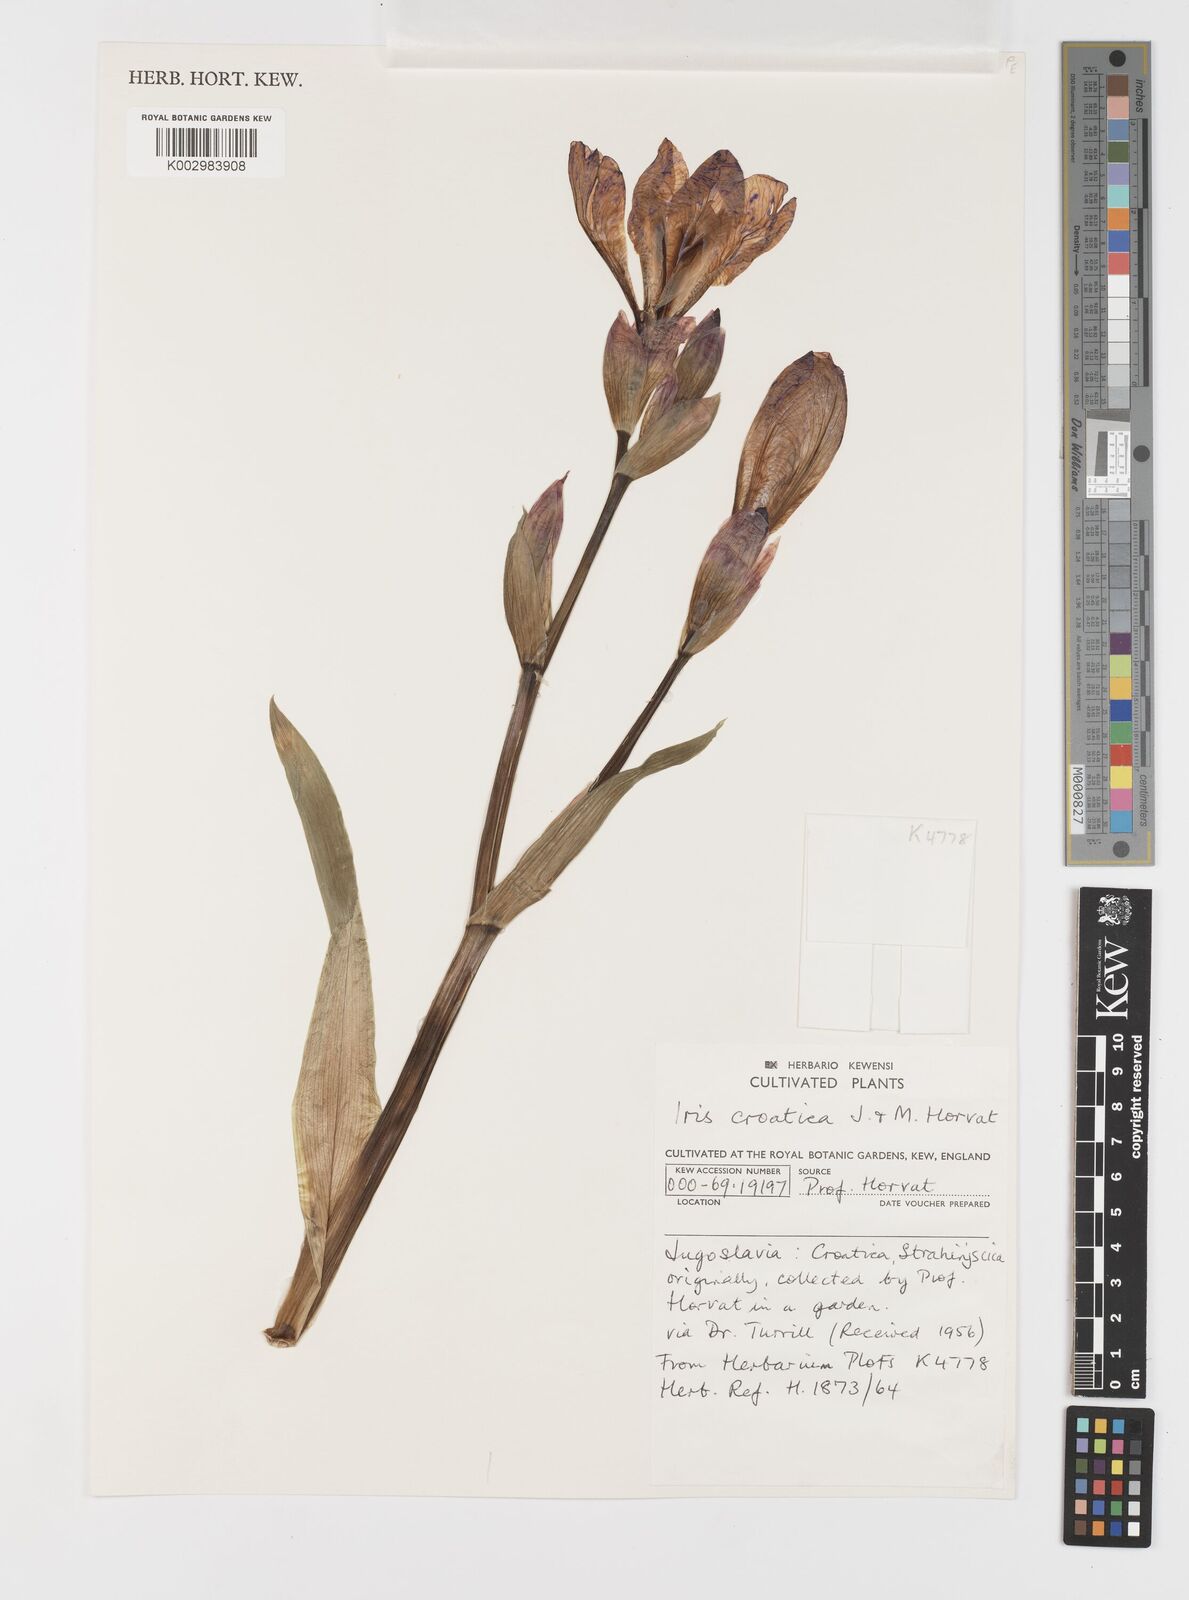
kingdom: Plantae
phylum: Tracheophyta
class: Liliopsida
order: Asparagales
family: Iridaceae
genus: Iris
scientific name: Iris germanica
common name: German iris
